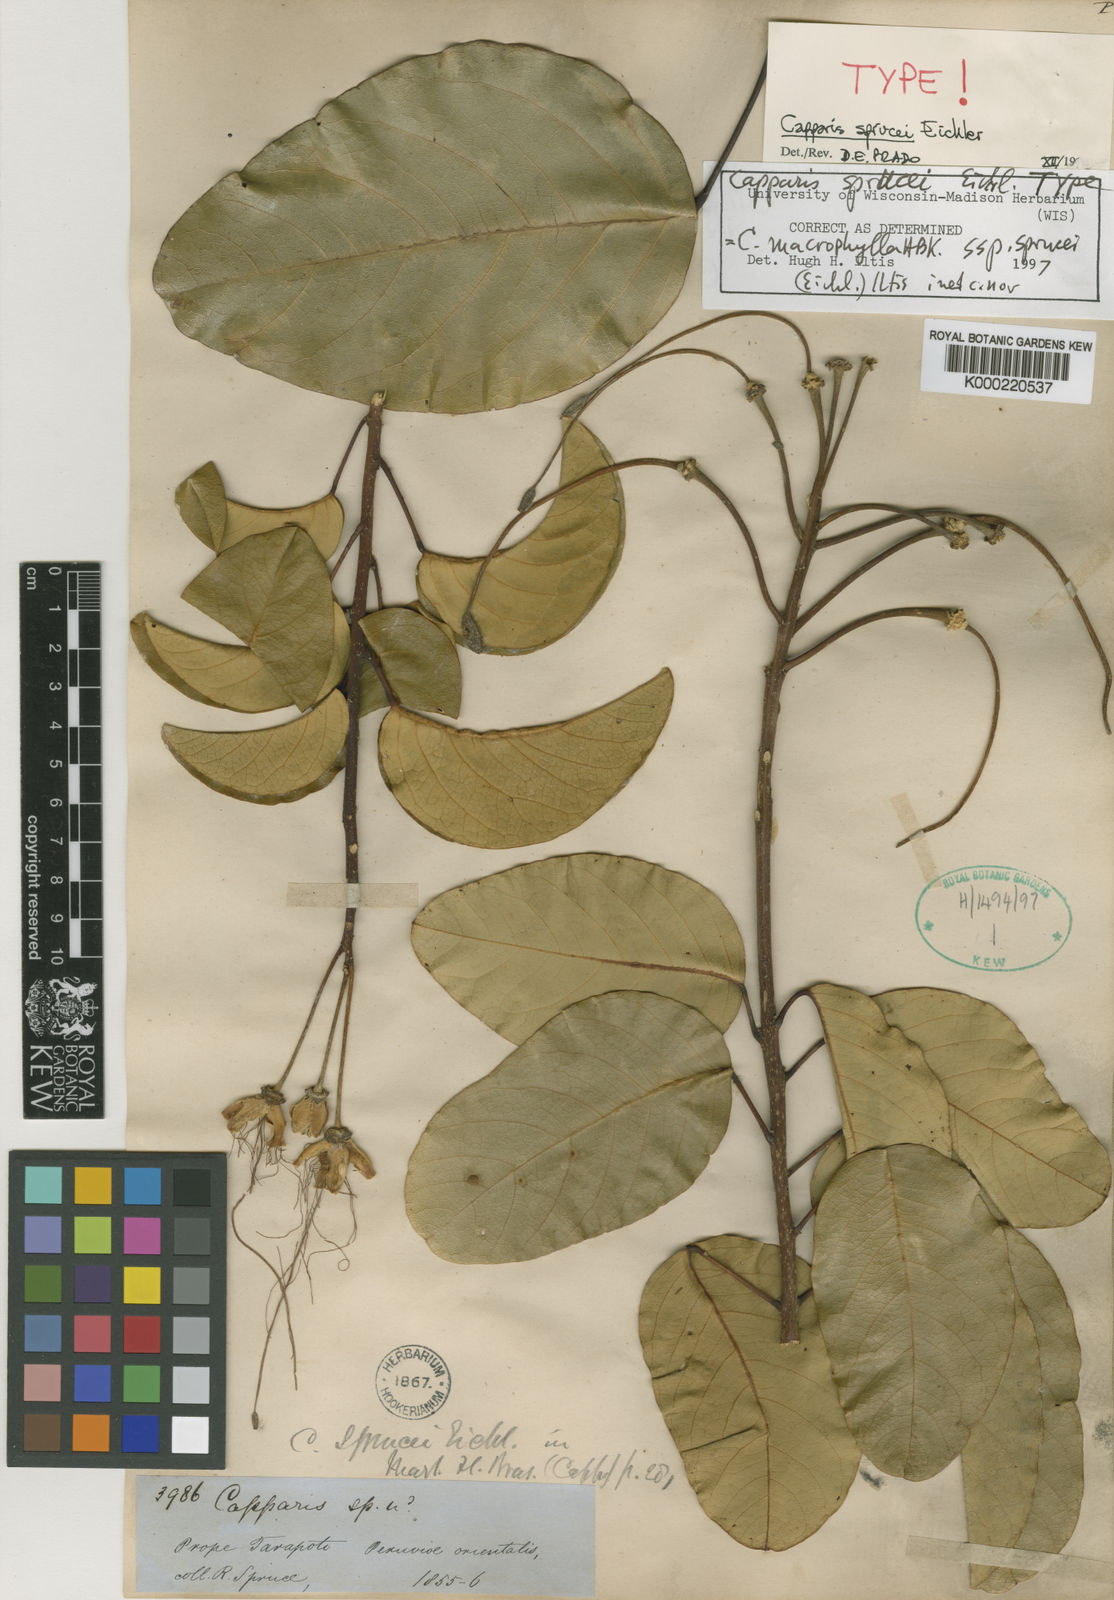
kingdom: Plantae
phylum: Tracheophyta
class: Magnoliopsida
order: Brassicales
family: Capparaceae
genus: Capparidastrum
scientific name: Capparidastrum sprucei
